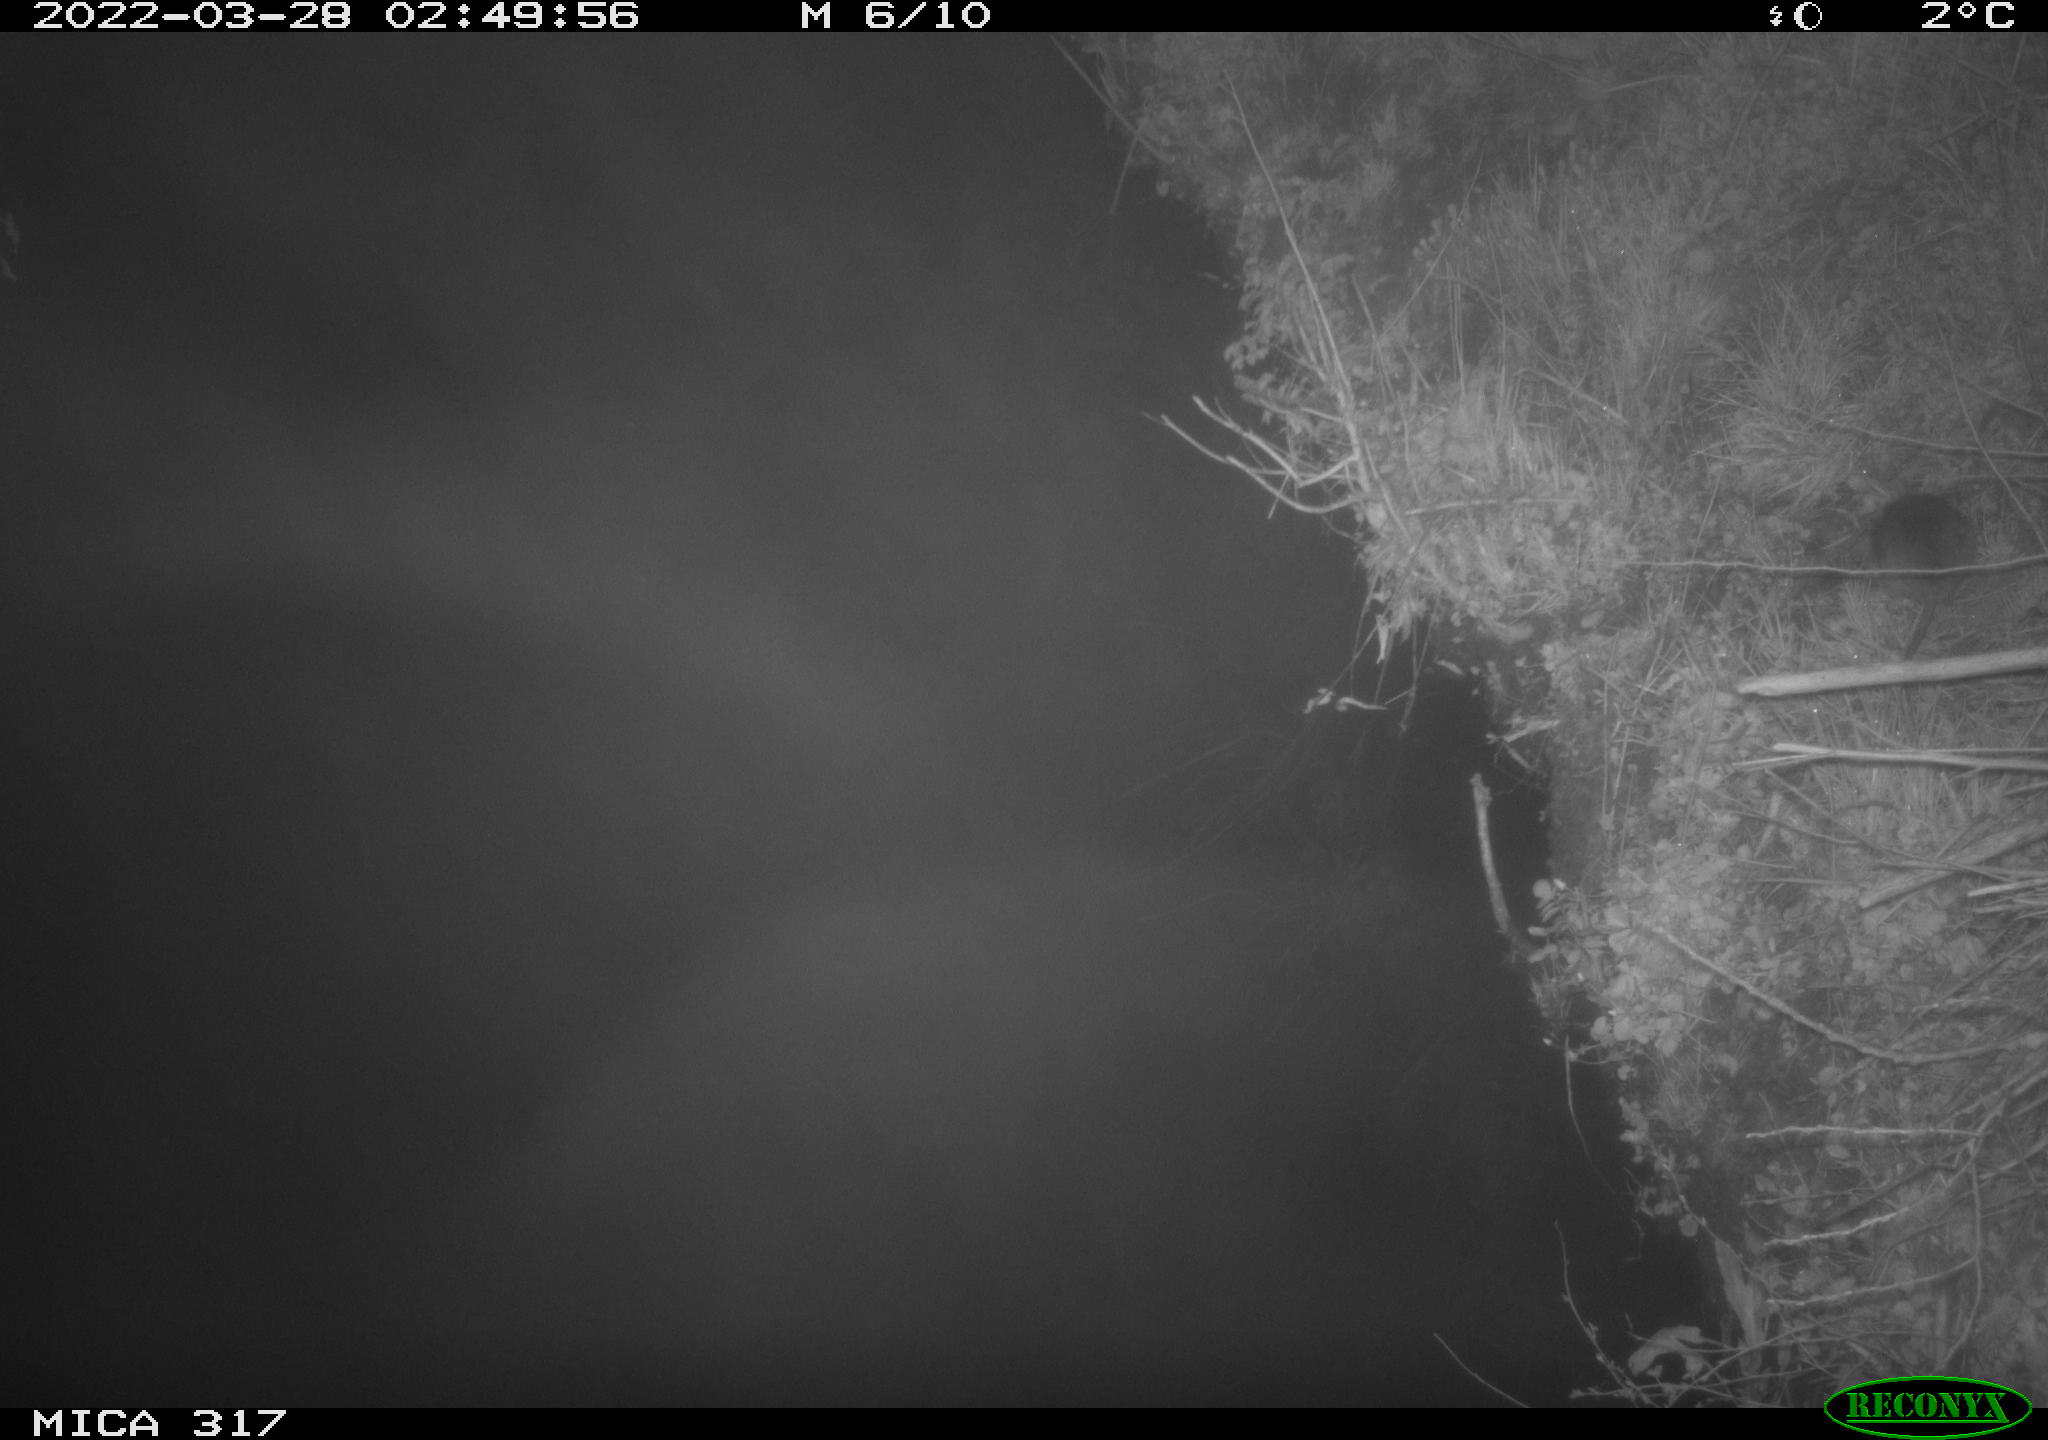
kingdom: Animalia
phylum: Chordata
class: Mammalia
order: Rodentia
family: Cricetidae
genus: Ondatra
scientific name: Ondatra zibethicus
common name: Muskrat
